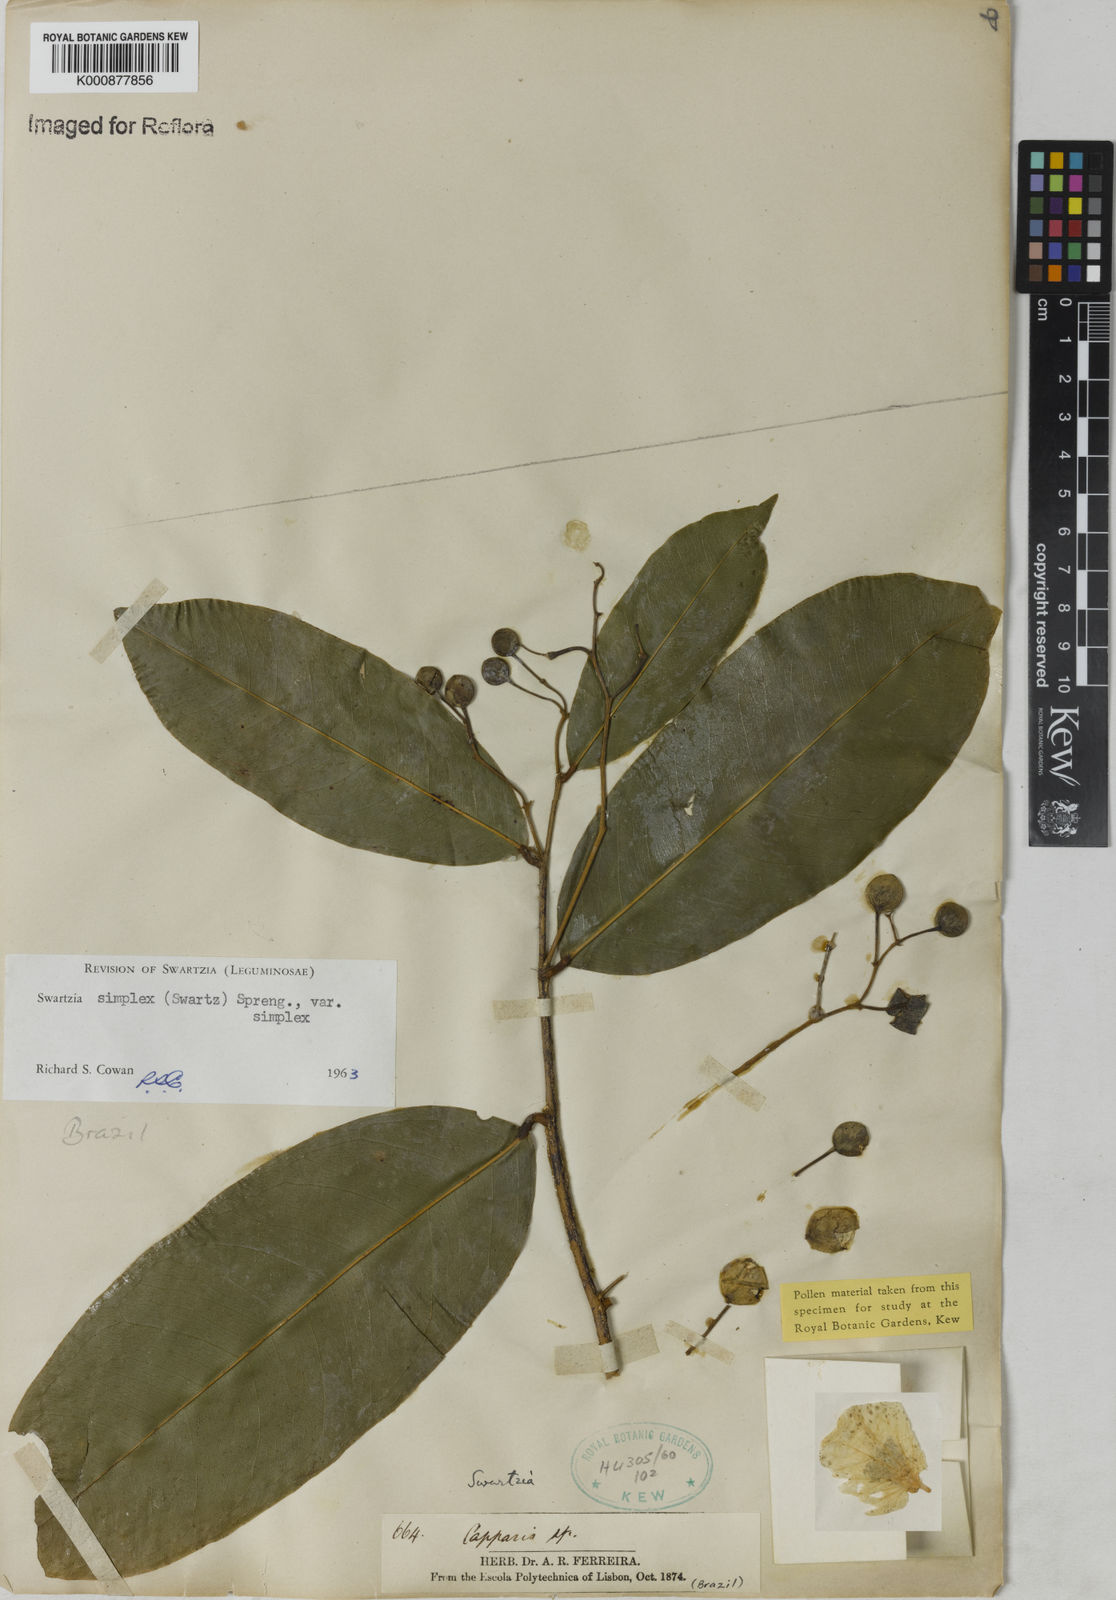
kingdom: Plantae
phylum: Tracheophyta
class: Magnoliopsida
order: Fabales
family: Fabaceae
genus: Swartzia
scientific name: Swartzia simplex
